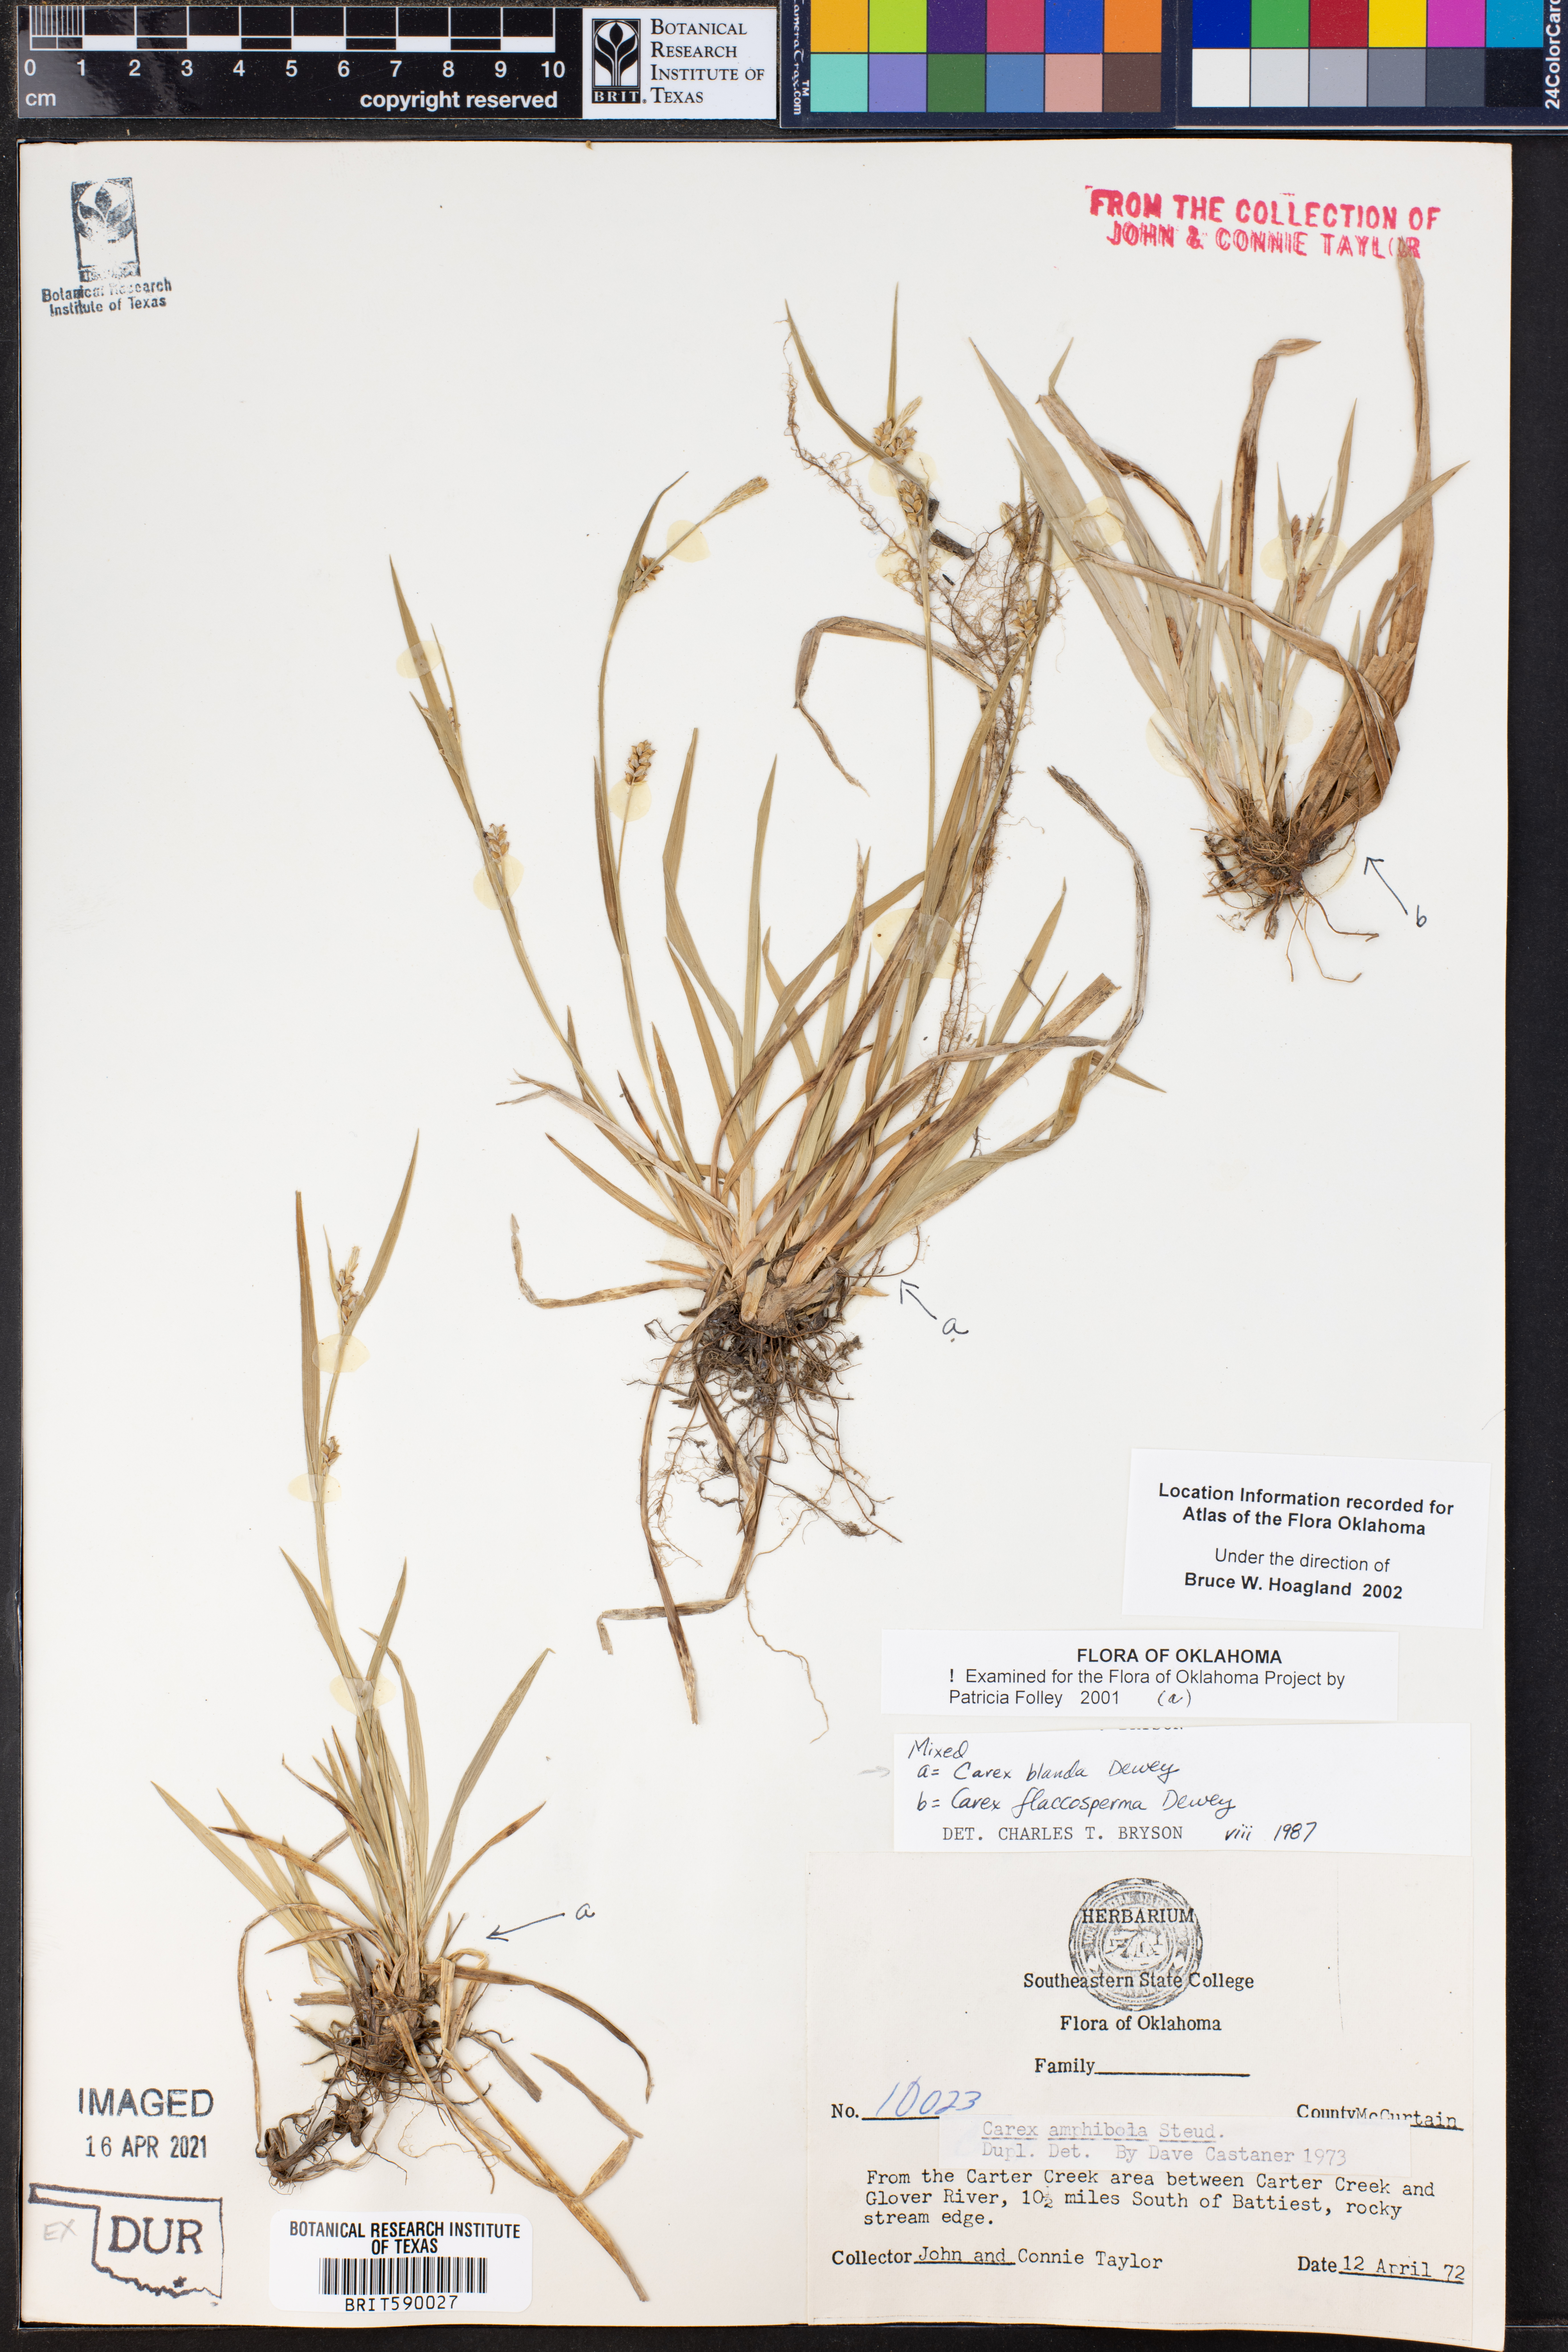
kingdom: Plantae
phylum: Tracheophyta
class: Liliopsida
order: Poales
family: Cyperaceae
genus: Carex
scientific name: Carex blanda
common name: Bland sedge
